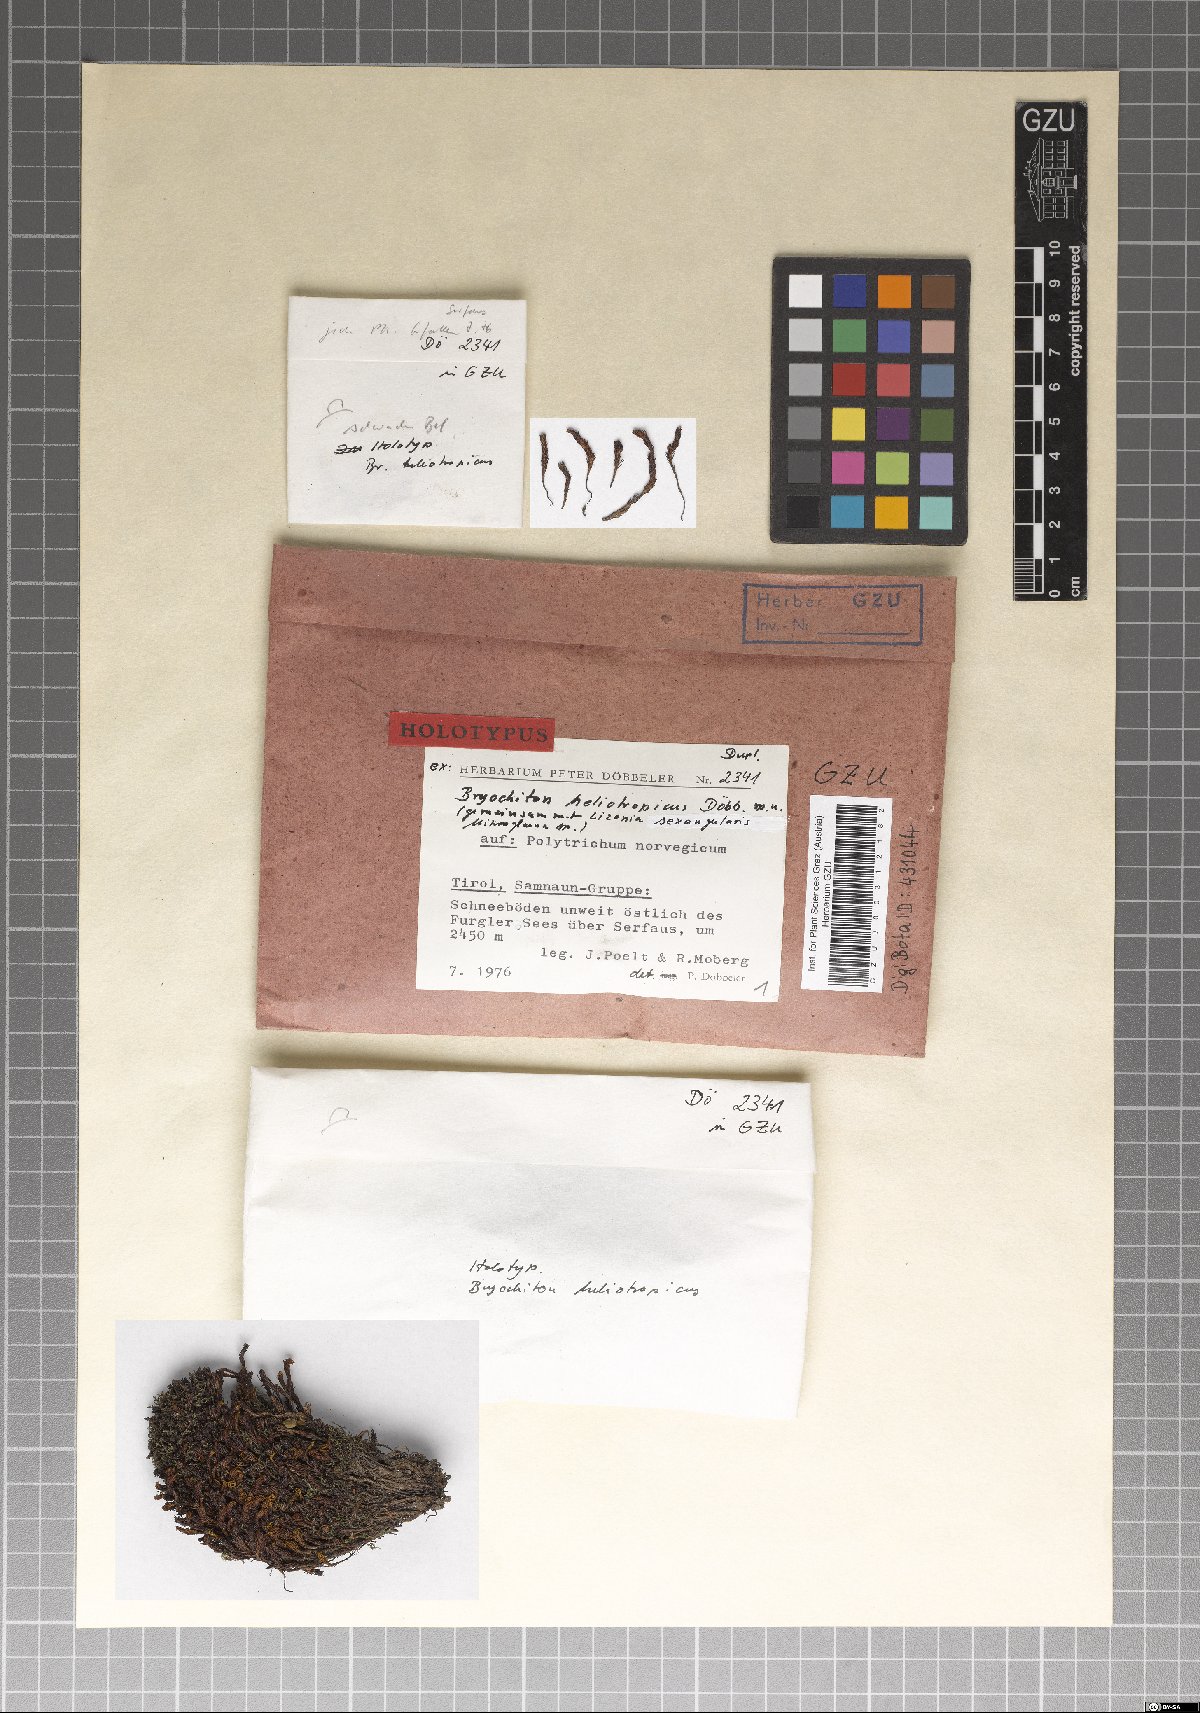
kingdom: Fungi
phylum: Ascomycota
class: Dothideomycetes
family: Pseudoperisporiaceae
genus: Bryochiton
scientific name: Bryochiton heliotropicus
